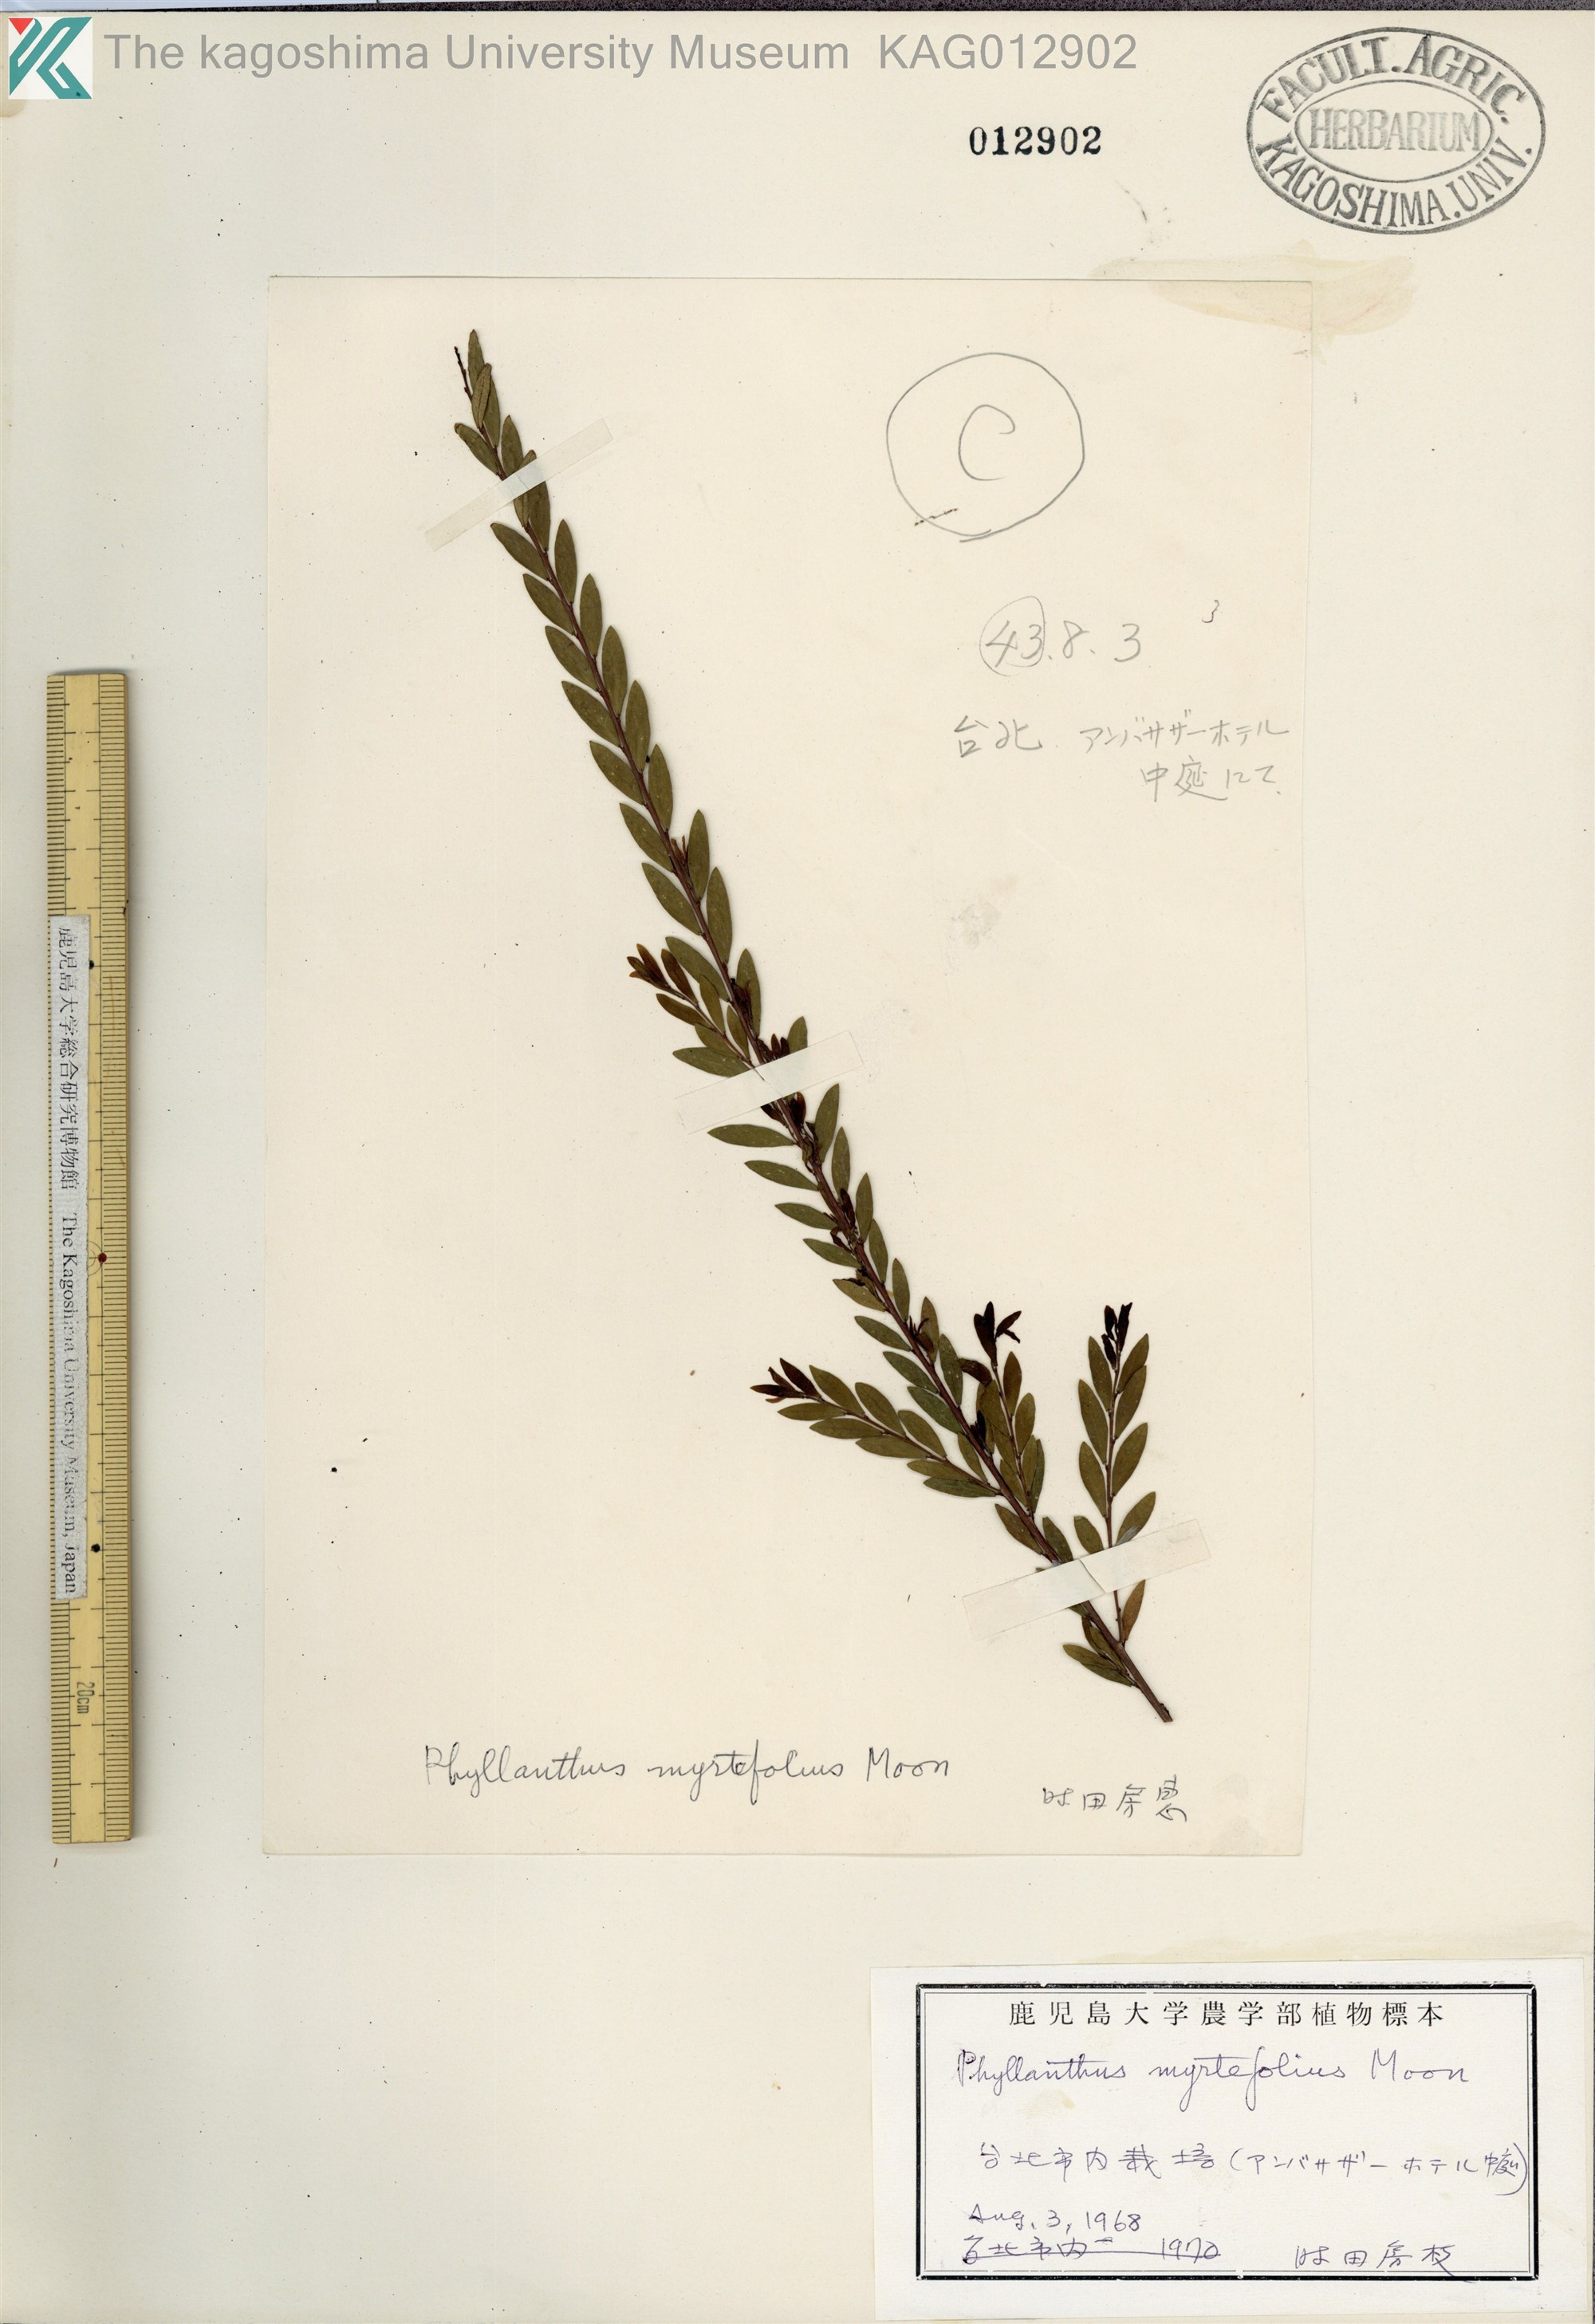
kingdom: Plantae
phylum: Tracheophyta
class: Magnoliopsida
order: Malpighiales
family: Phyllanthaceae
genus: Phyllanthus
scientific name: Phyllanthus myrtifolius
